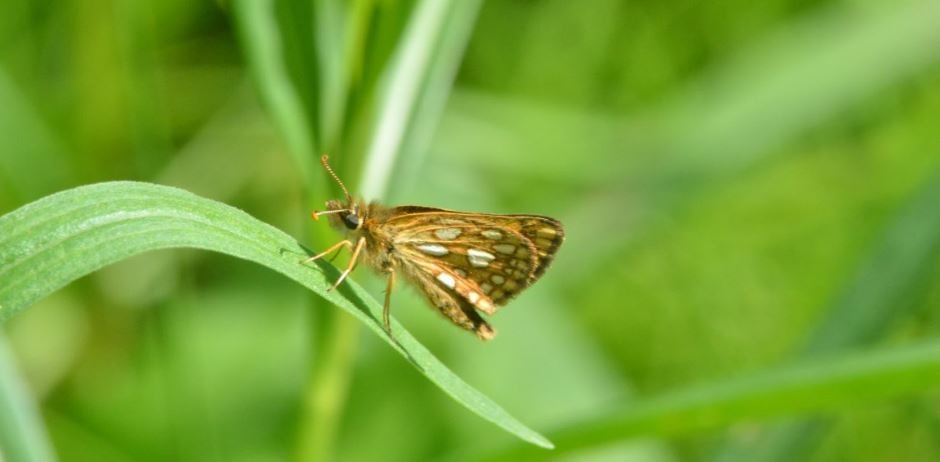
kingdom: Animalia
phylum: Arthropoda
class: Insecta
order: Lepidoptera
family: Hesperiidae
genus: Carterocephalus
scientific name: Carterocephalus palaemon
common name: Chequered Skipper
